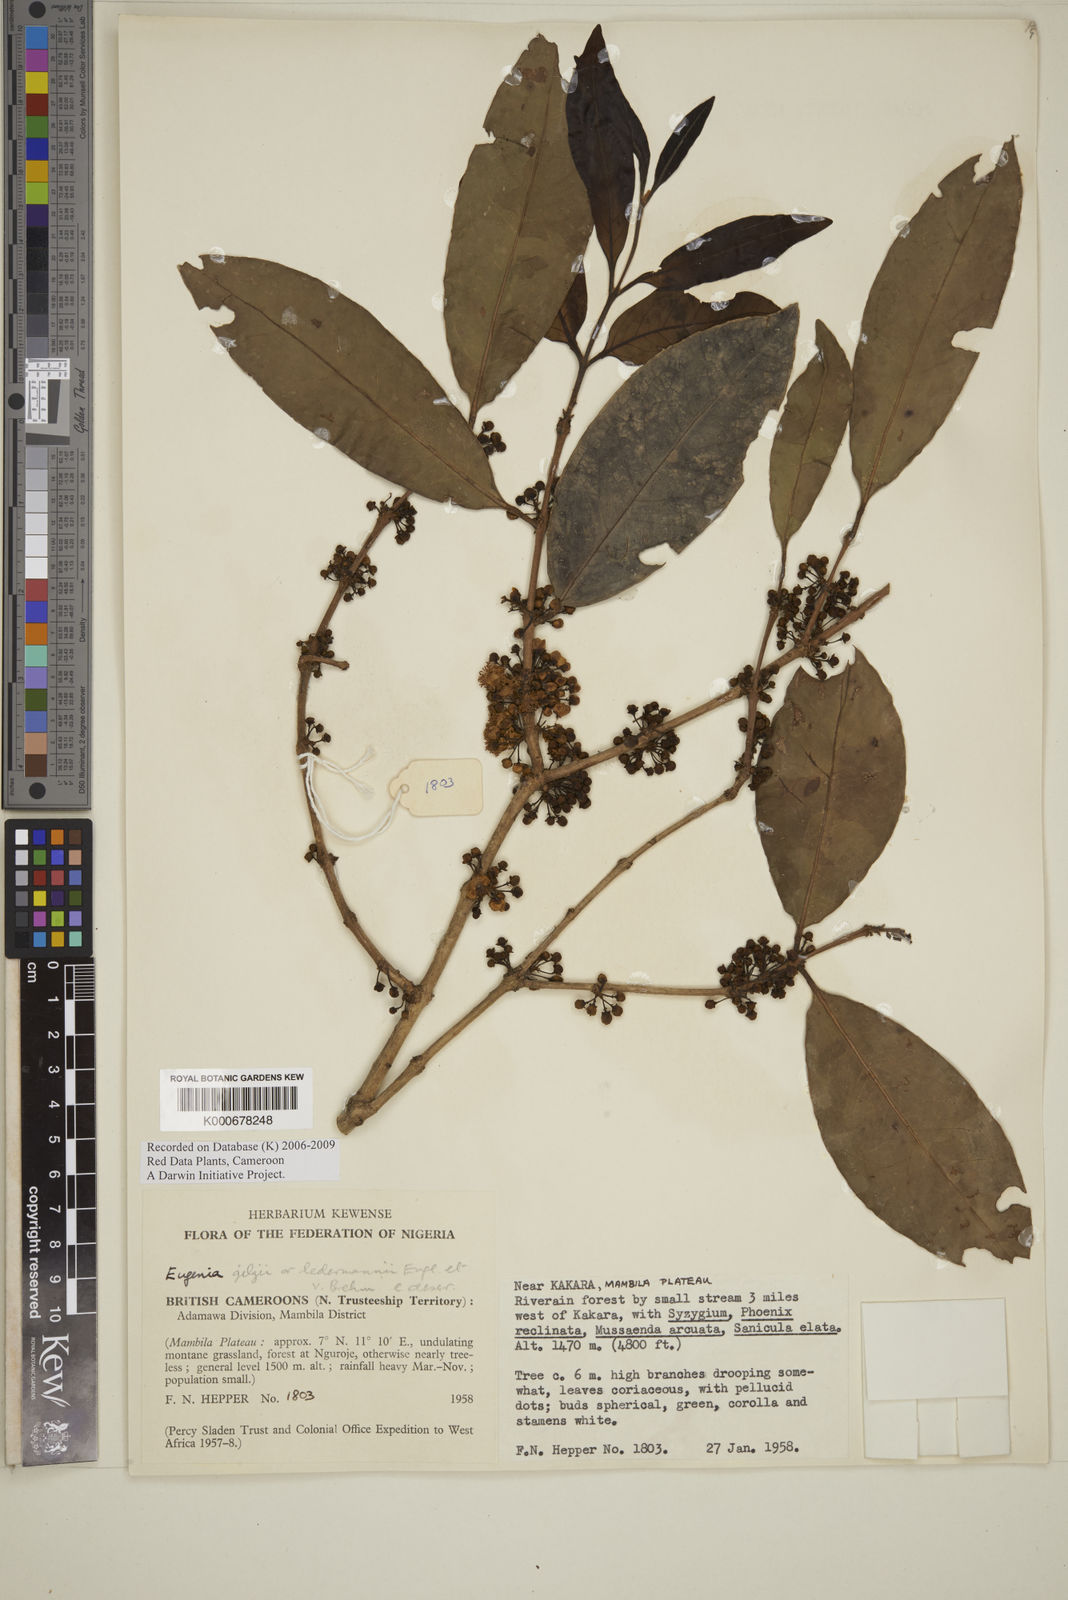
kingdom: Plantae
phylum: Tracheophyta
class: Magnoliopsida
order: Myrtales
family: Myrtaceae
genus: Eugenia
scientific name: Eugenia gilgii
